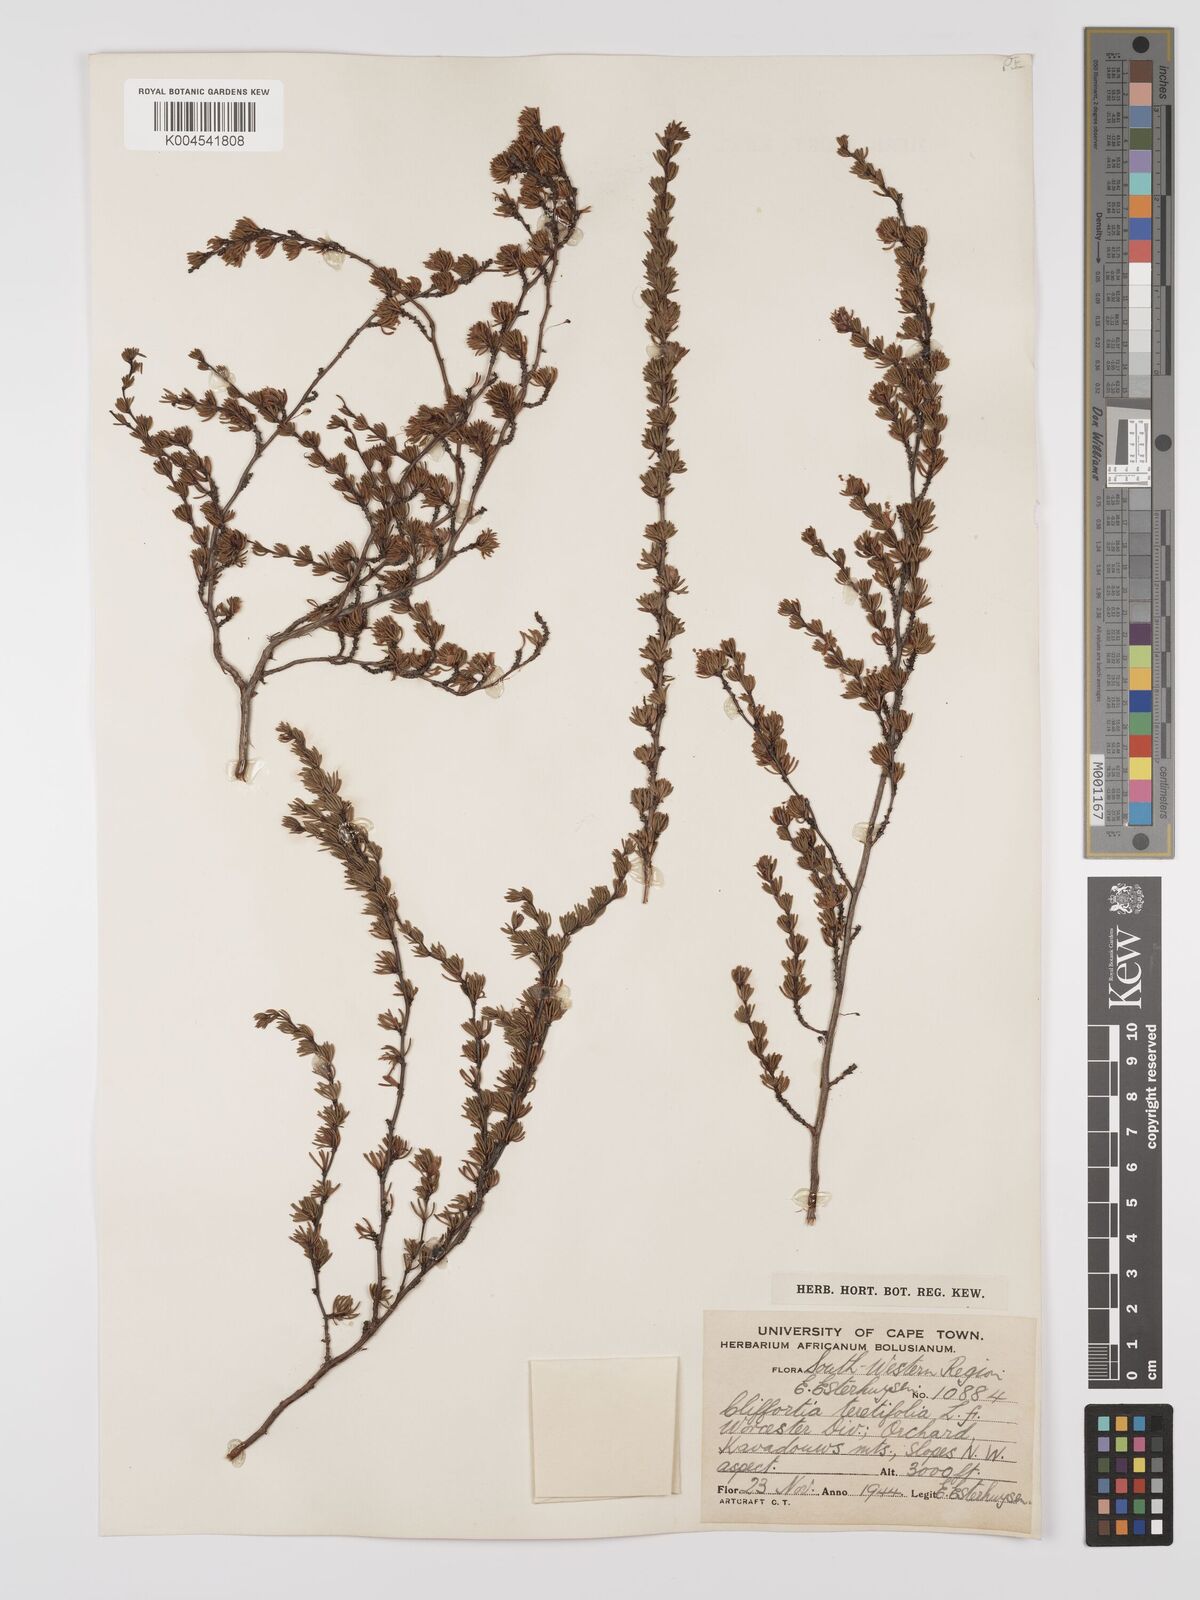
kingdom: Plantae
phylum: Tracheophyta
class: Magnoliopsida
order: Rosales
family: Rosaceae
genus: Cliffortia
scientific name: Cliffortia teretifolia
